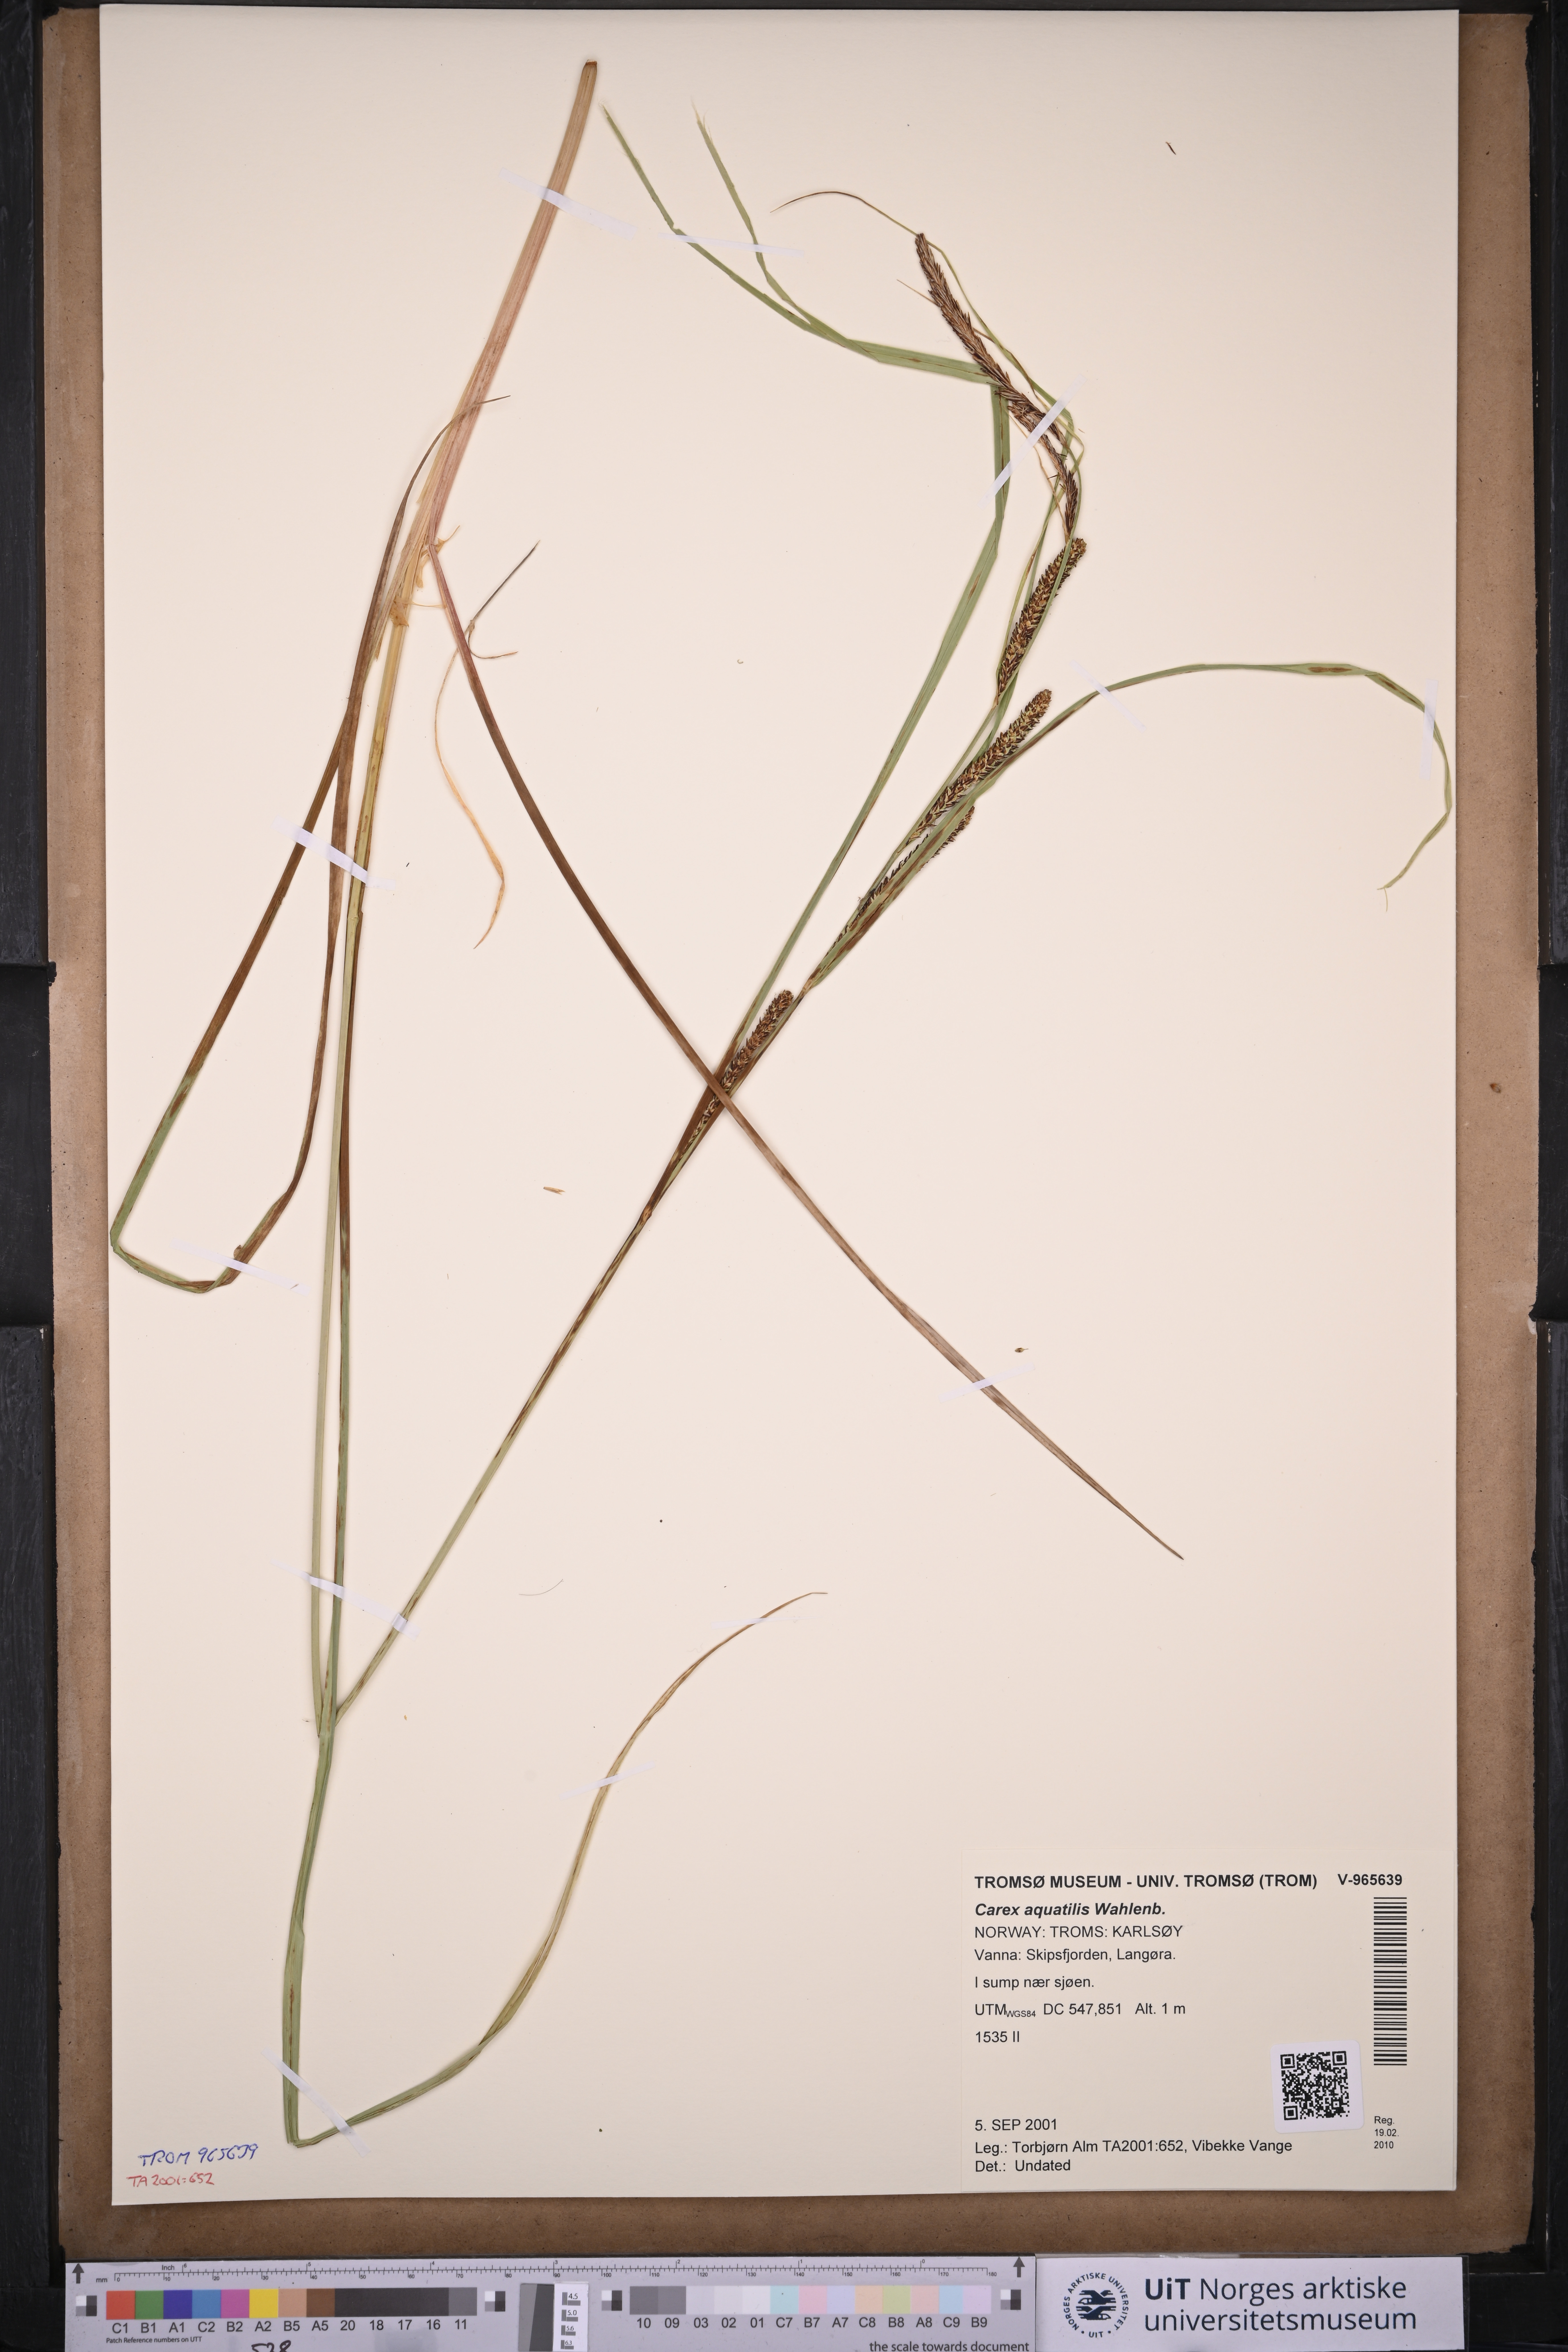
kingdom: Plantae
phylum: Tracheophyta
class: Liliopsida
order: Poales
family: Cyperaceae
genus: Carex
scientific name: Carex aquatilis
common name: Water sedge
